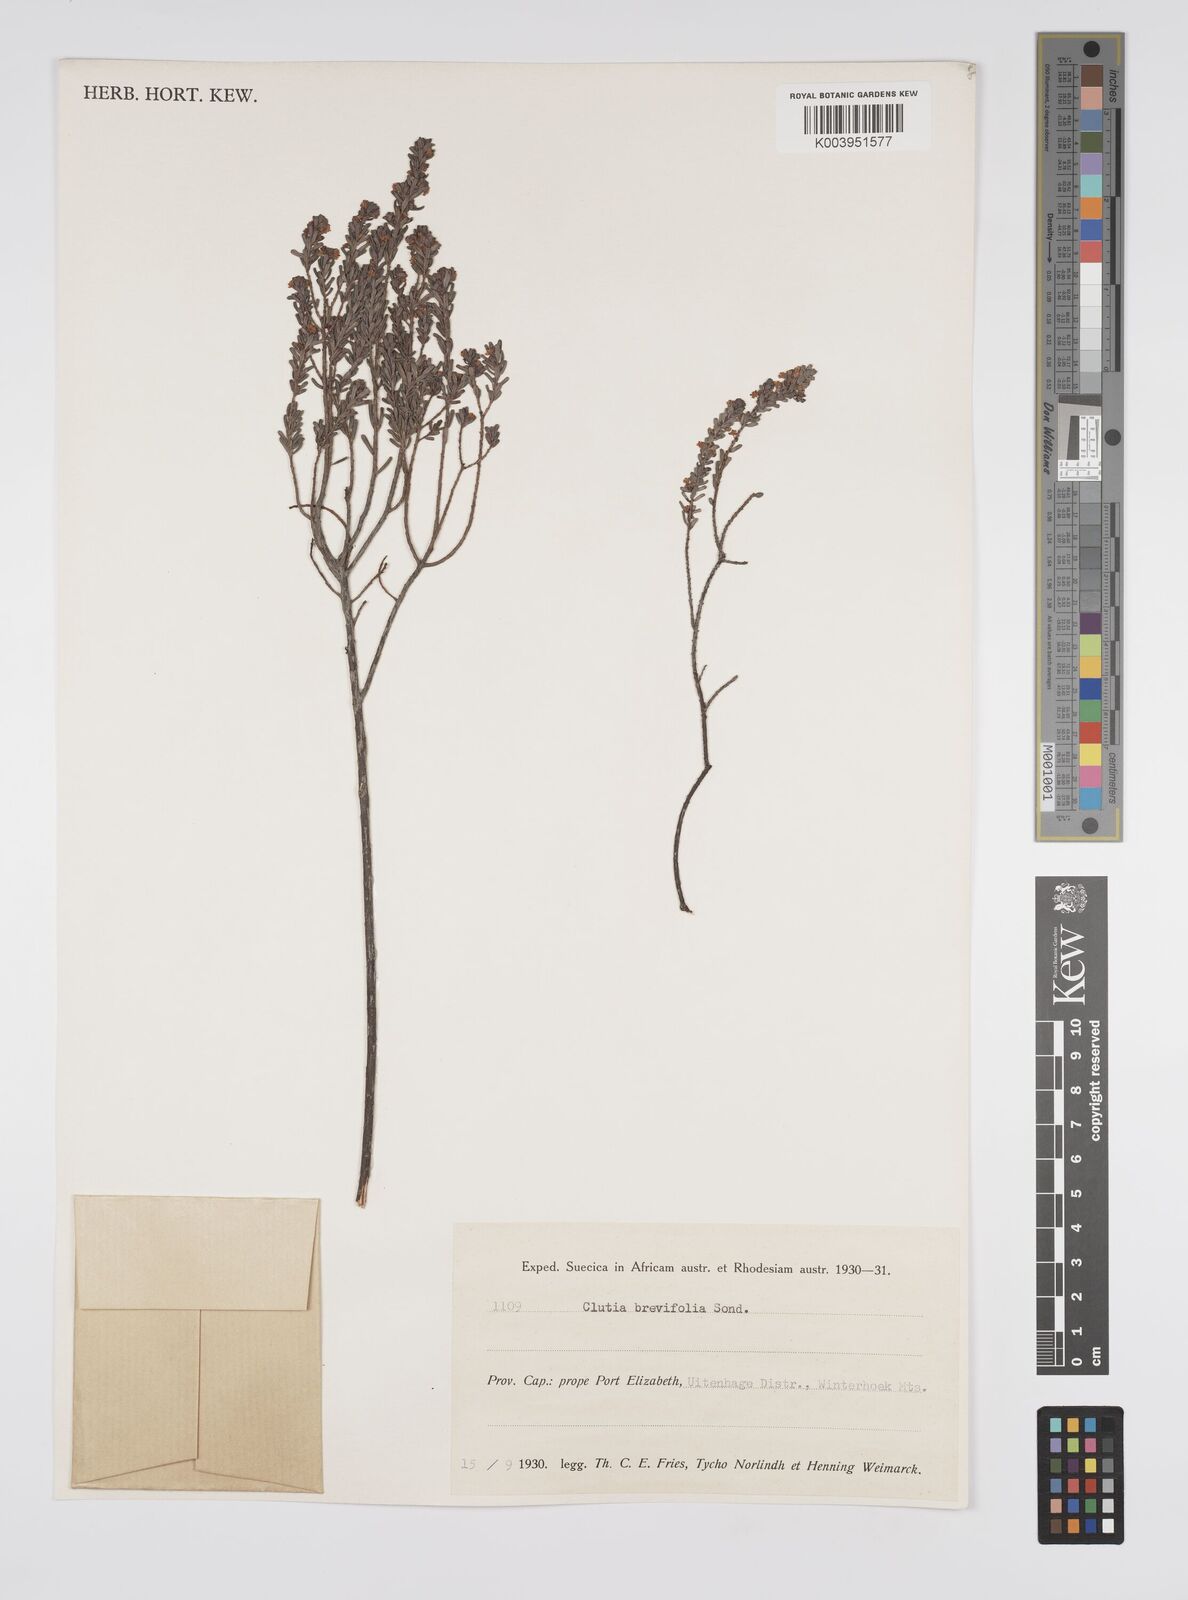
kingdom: Plantae
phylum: Tracheophyta
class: Magnoliopsida
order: Malpighiales
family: Peraceae
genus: Clutia
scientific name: Clutia brevifolia
